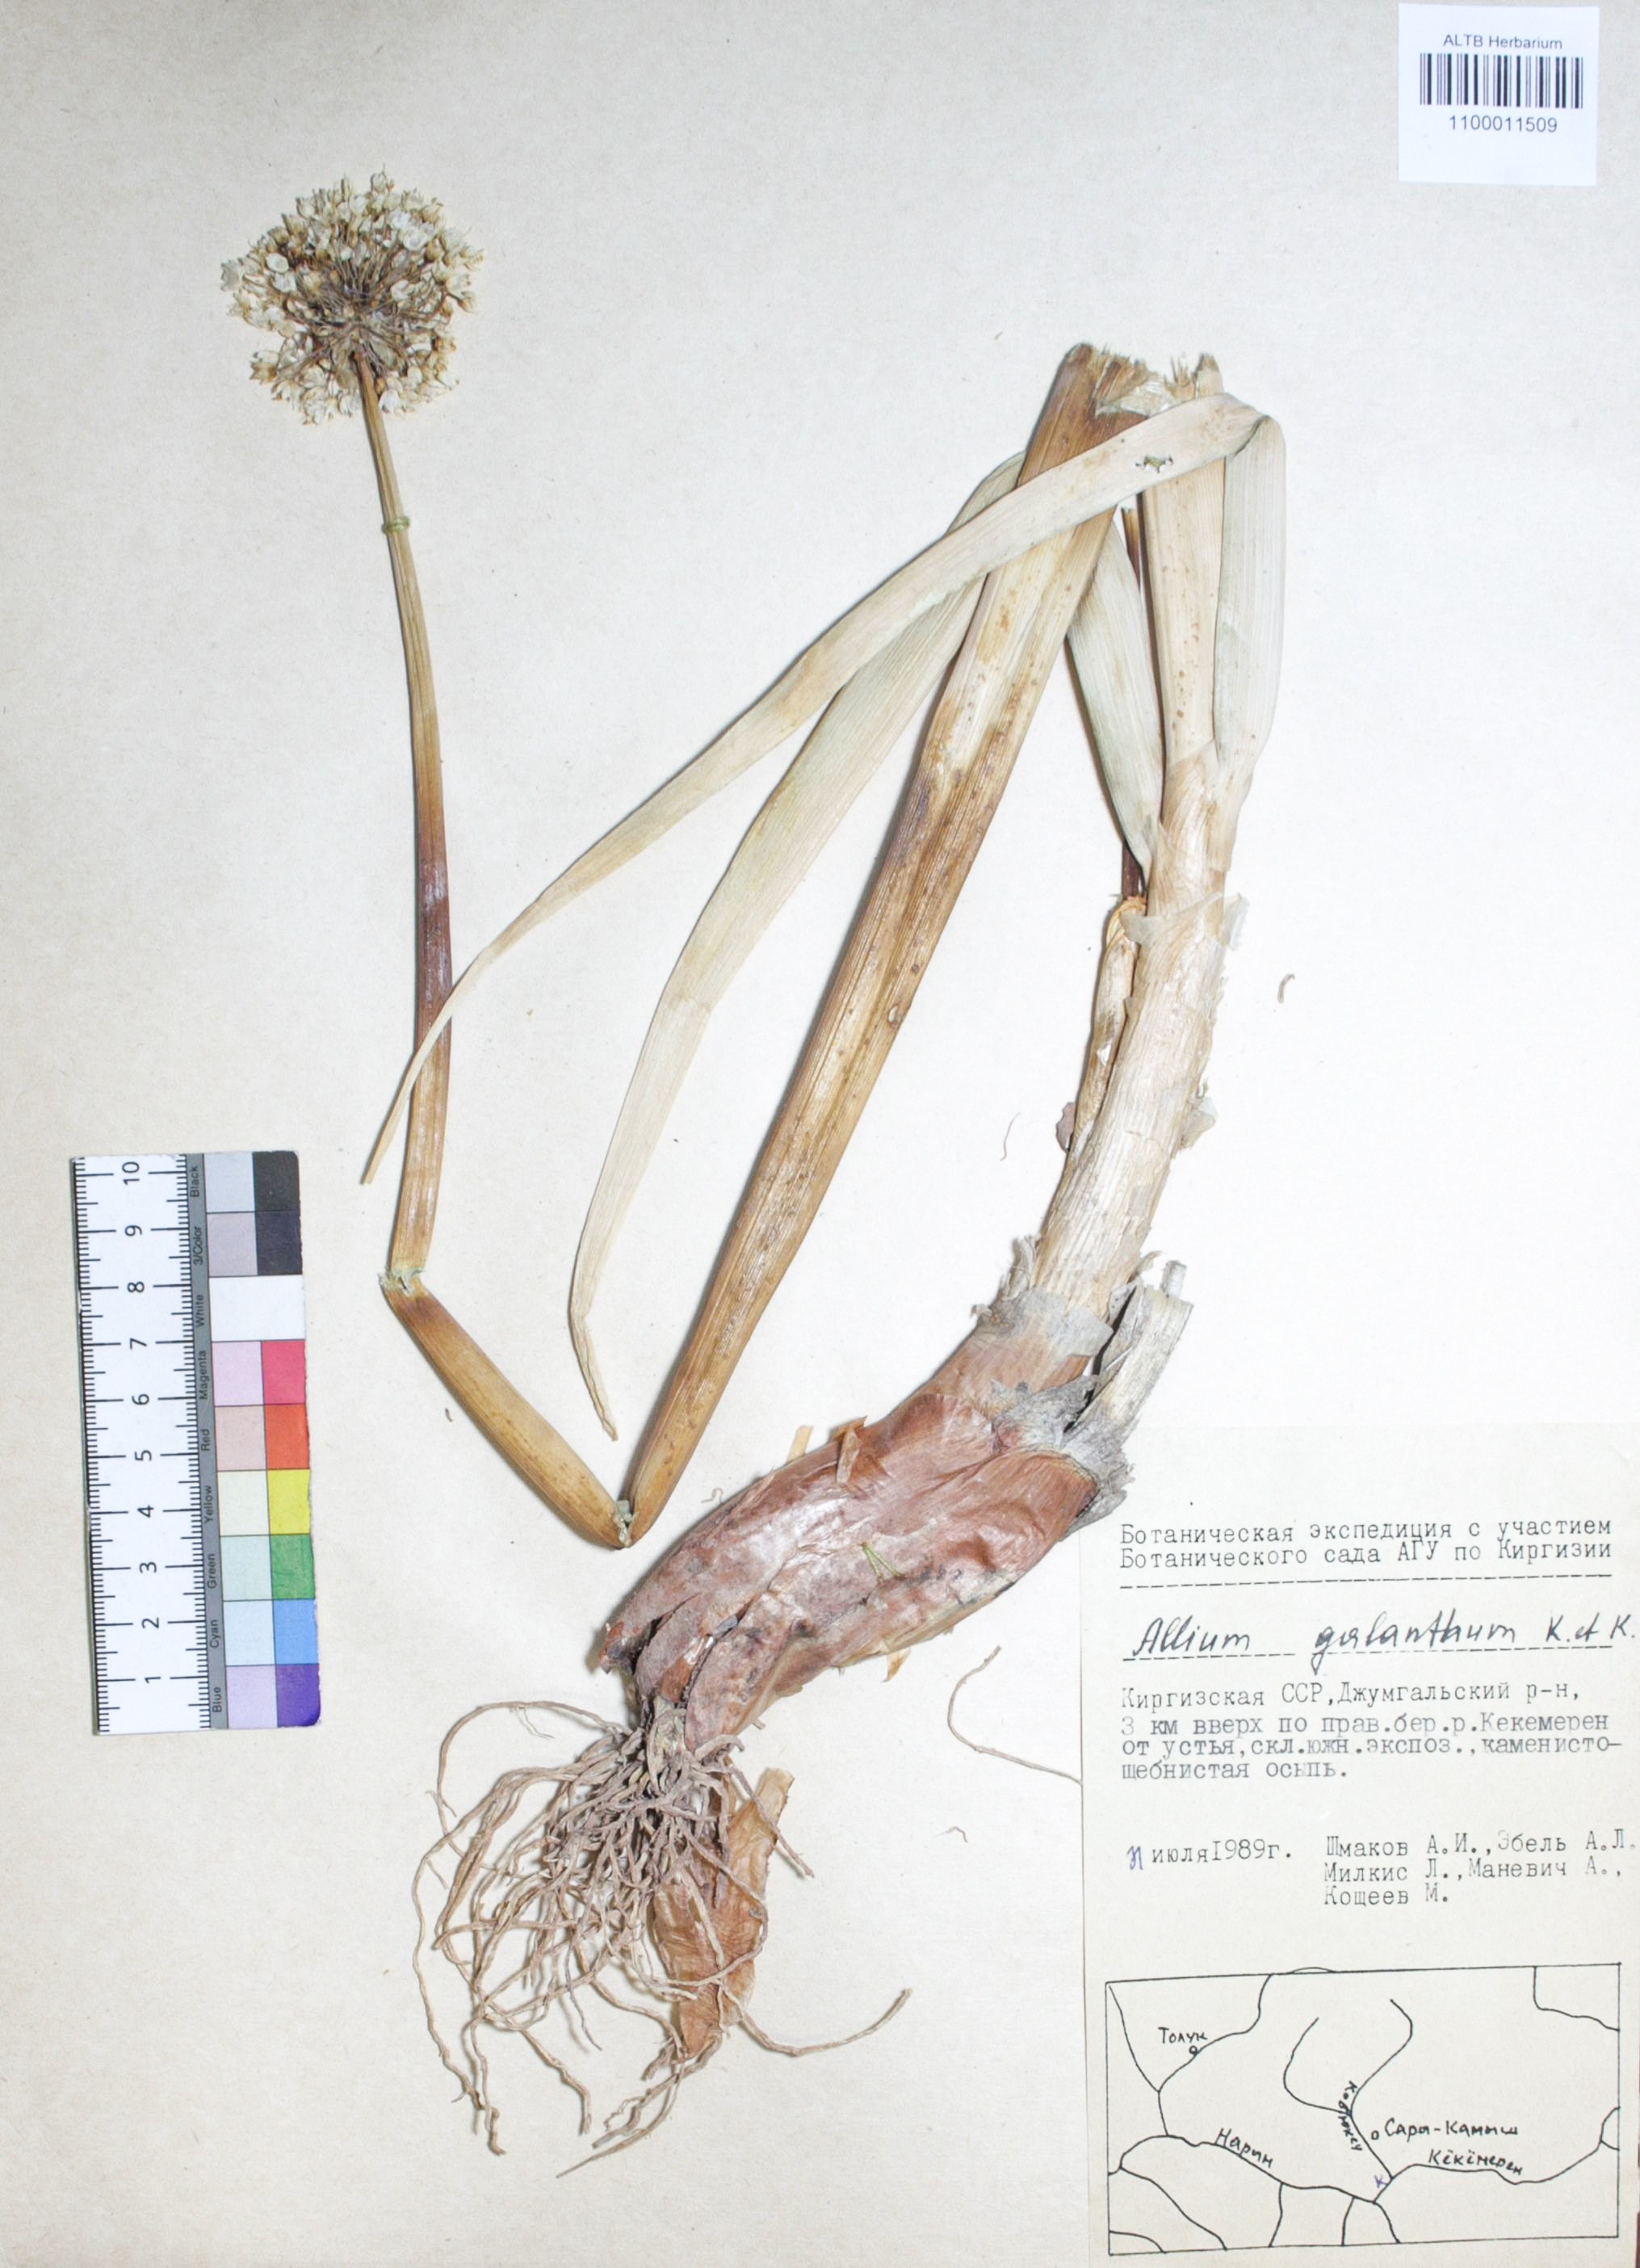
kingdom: Plantae
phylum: Tracheophyta
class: Liliopsida
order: Asparagales
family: Amaryllidaceae
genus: Allium
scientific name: Allium galanthum
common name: Snowdrop onion
